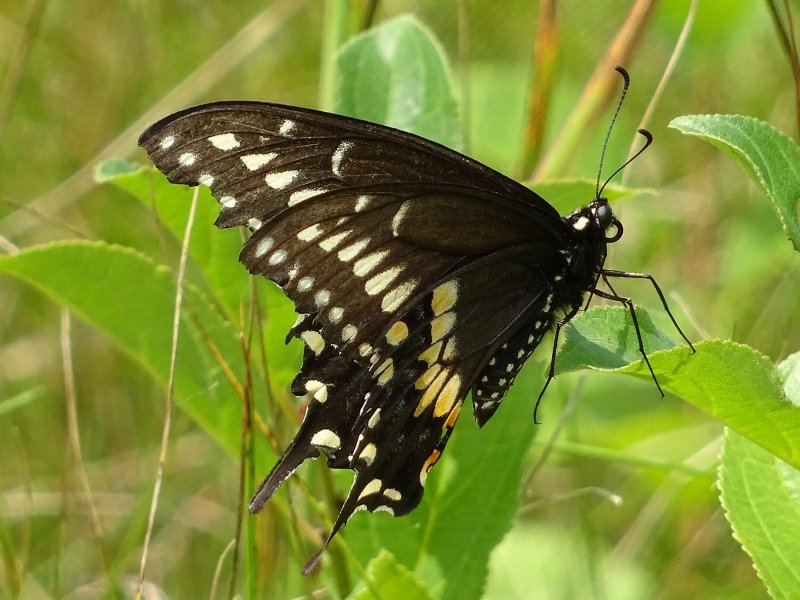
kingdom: Animalia
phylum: Arthropoda
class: Insecta
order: Lepidoptera
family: Papilionidae
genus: Papilio
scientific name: Papilio polyxenes
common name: Black Swallowtail
